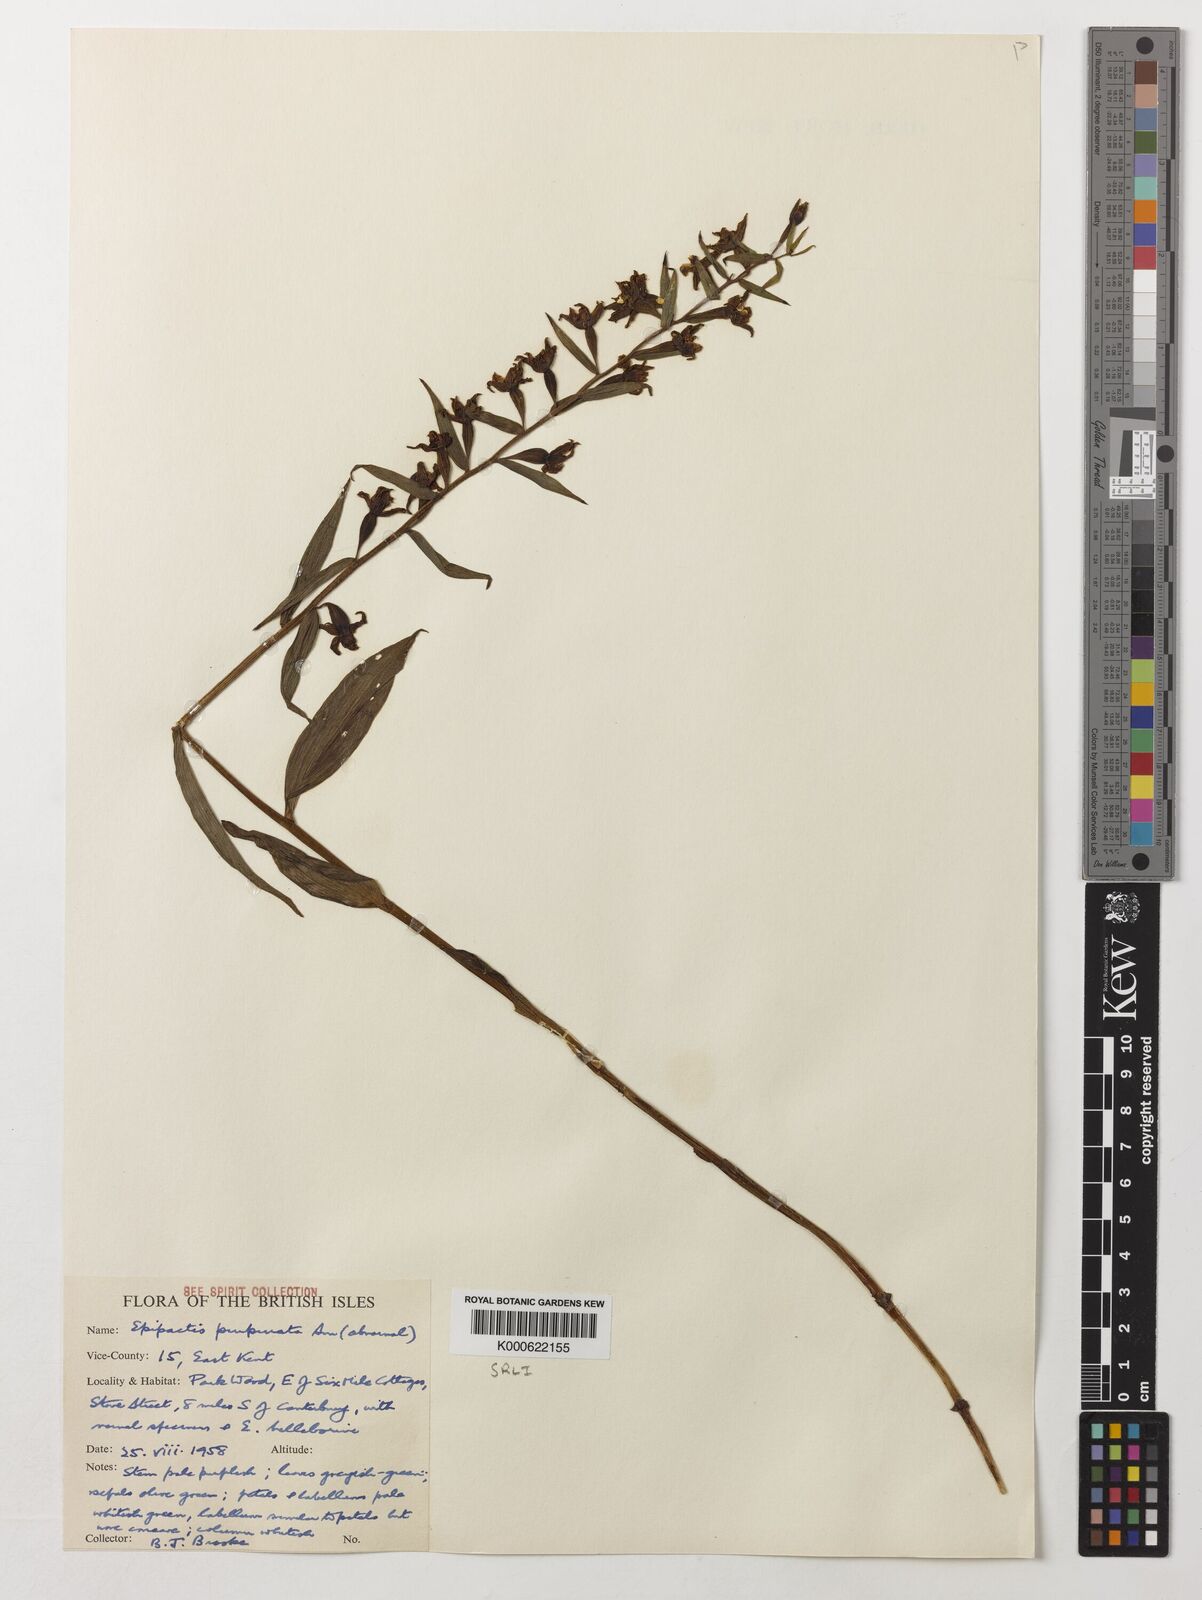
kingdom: Plantae
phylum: Tracheophyta
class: Liliopsida
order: Asparagales
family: Orchidaceae
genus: Epipactis
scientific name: Epipactis purpurata
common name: Violet helleborine
